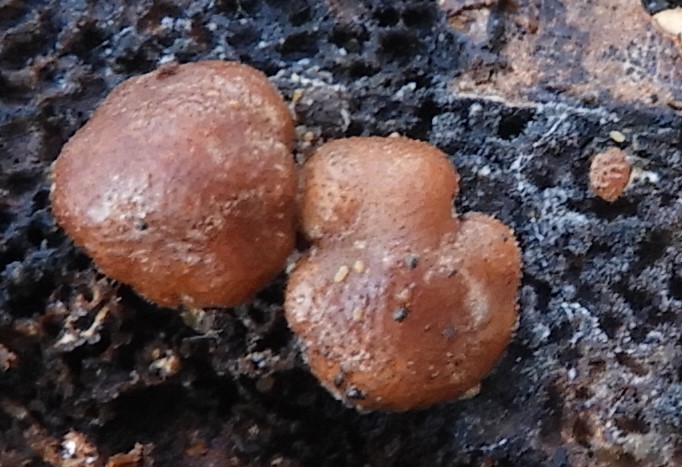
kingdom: Fungi
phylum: Ascomycota
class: Sordariomycetes
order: Hypocreales
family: Hypocreaceae
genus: Trichoderma
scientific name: Trichoderma europaeum
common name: rosabrun kødkerne
